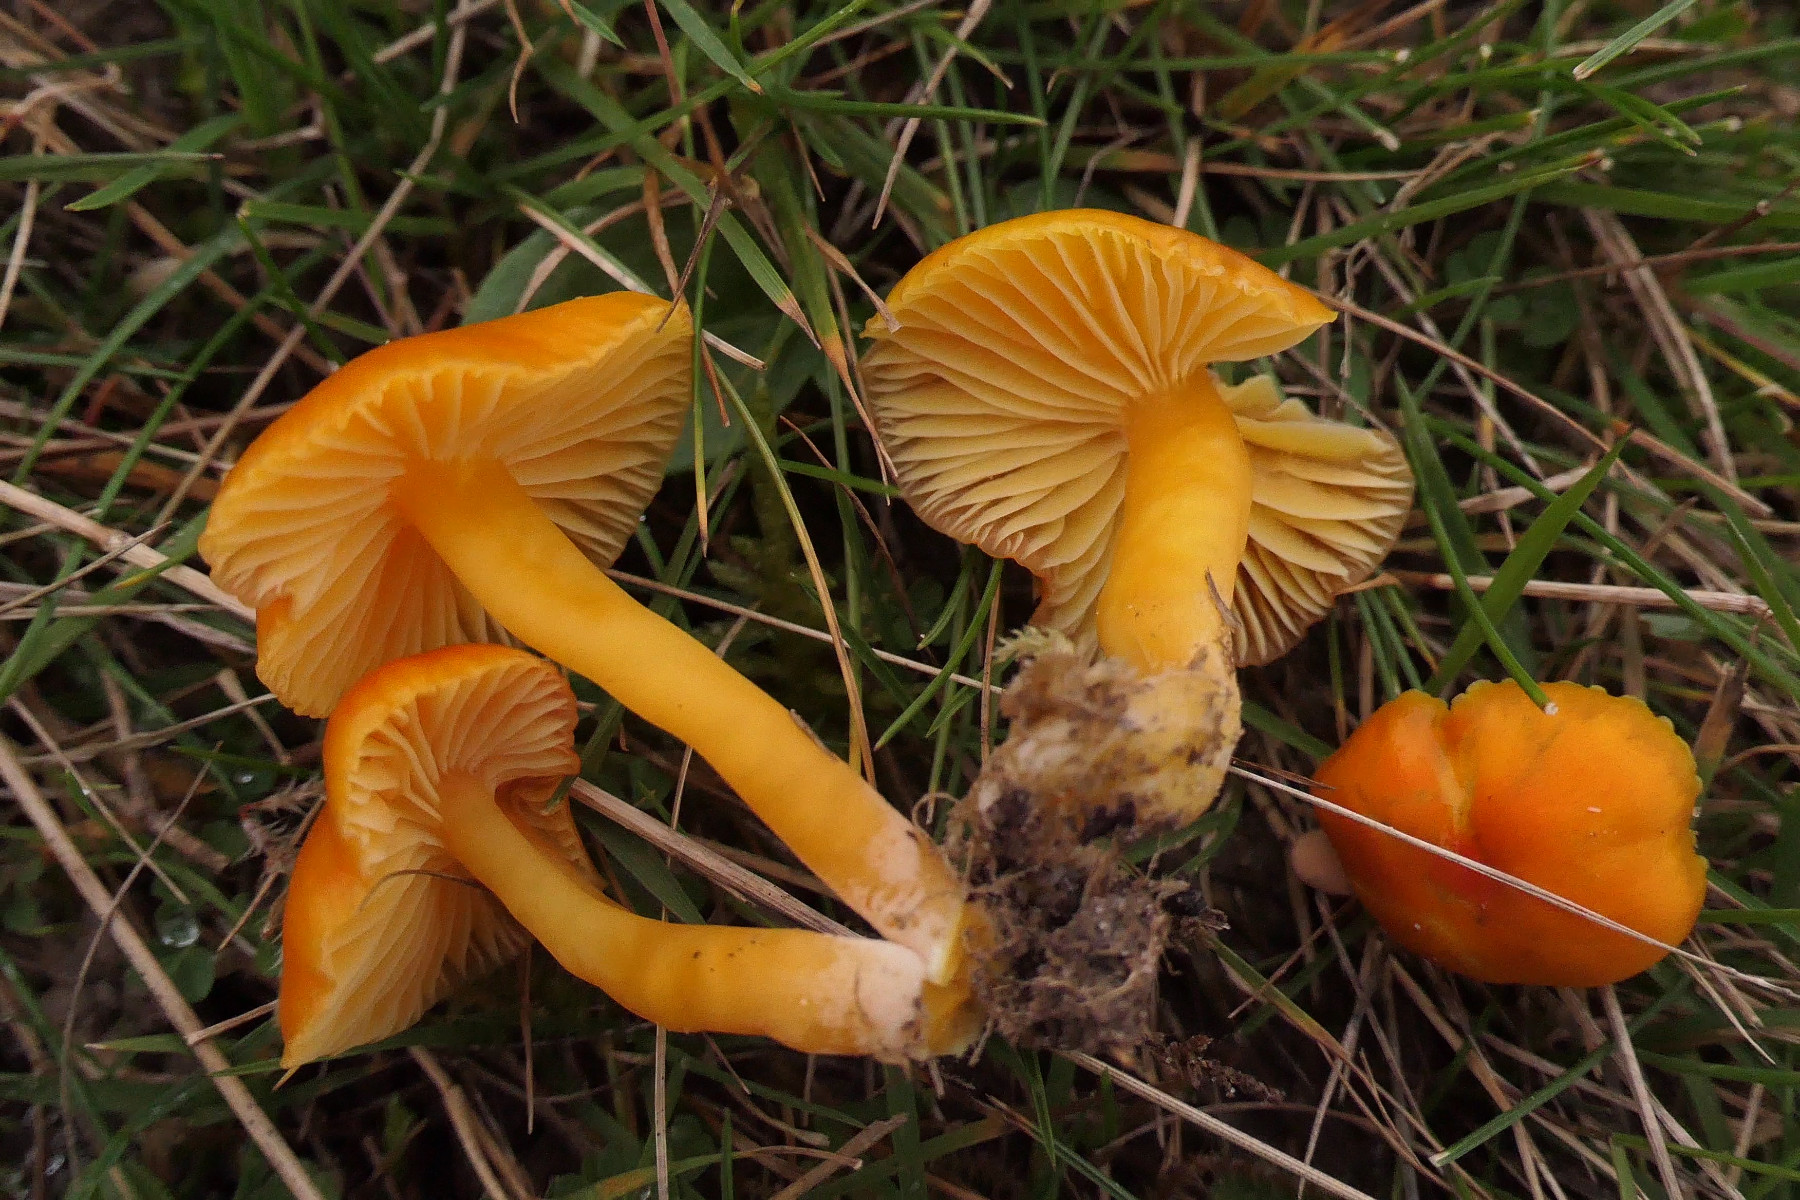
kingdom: Fungi
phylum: Basidiomycota
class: Agaricomycetes
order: Agaricales
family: Hygrophoraceae
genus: Hygrocybe
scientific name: Hygrocybe insipida
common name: liden vokshat
